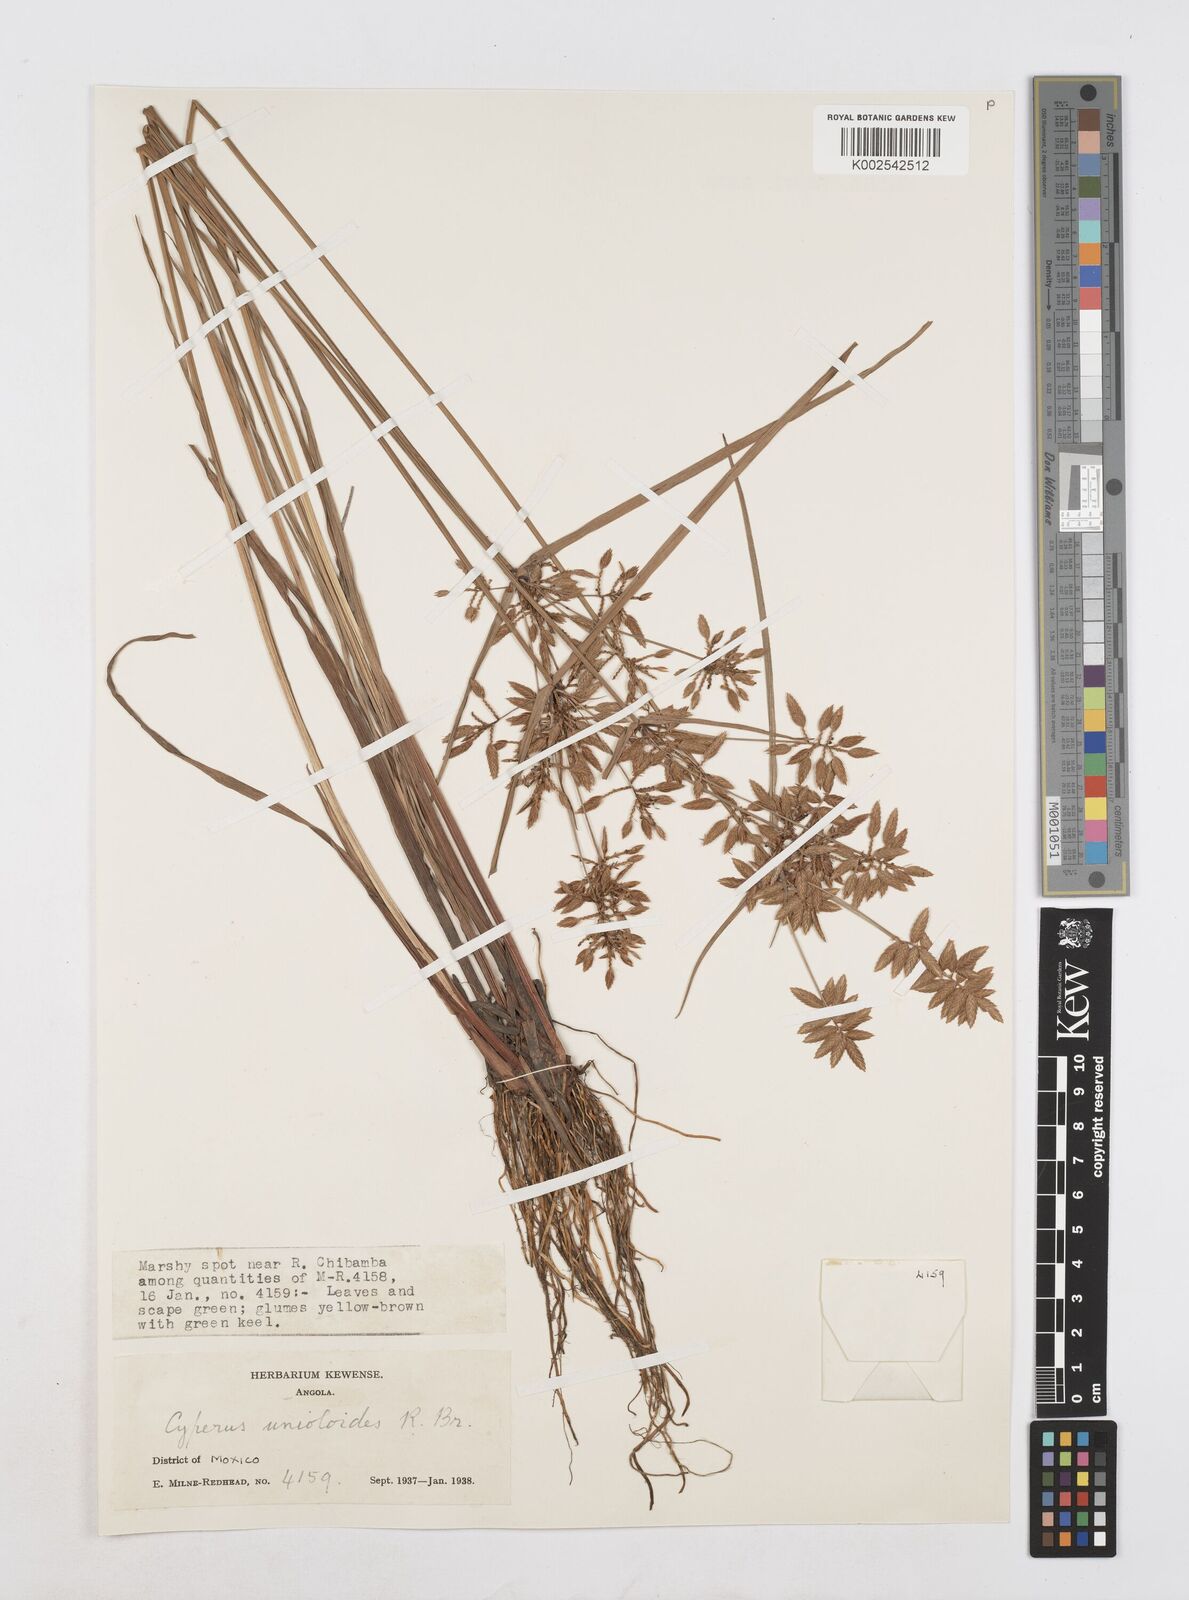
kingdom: Plantae
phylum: Tracheophyta
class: Liliopsida
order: Poales
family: Cyperaceae
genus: Cyperus
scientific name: Cyperus unioloides
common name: Uniola flatsedge
